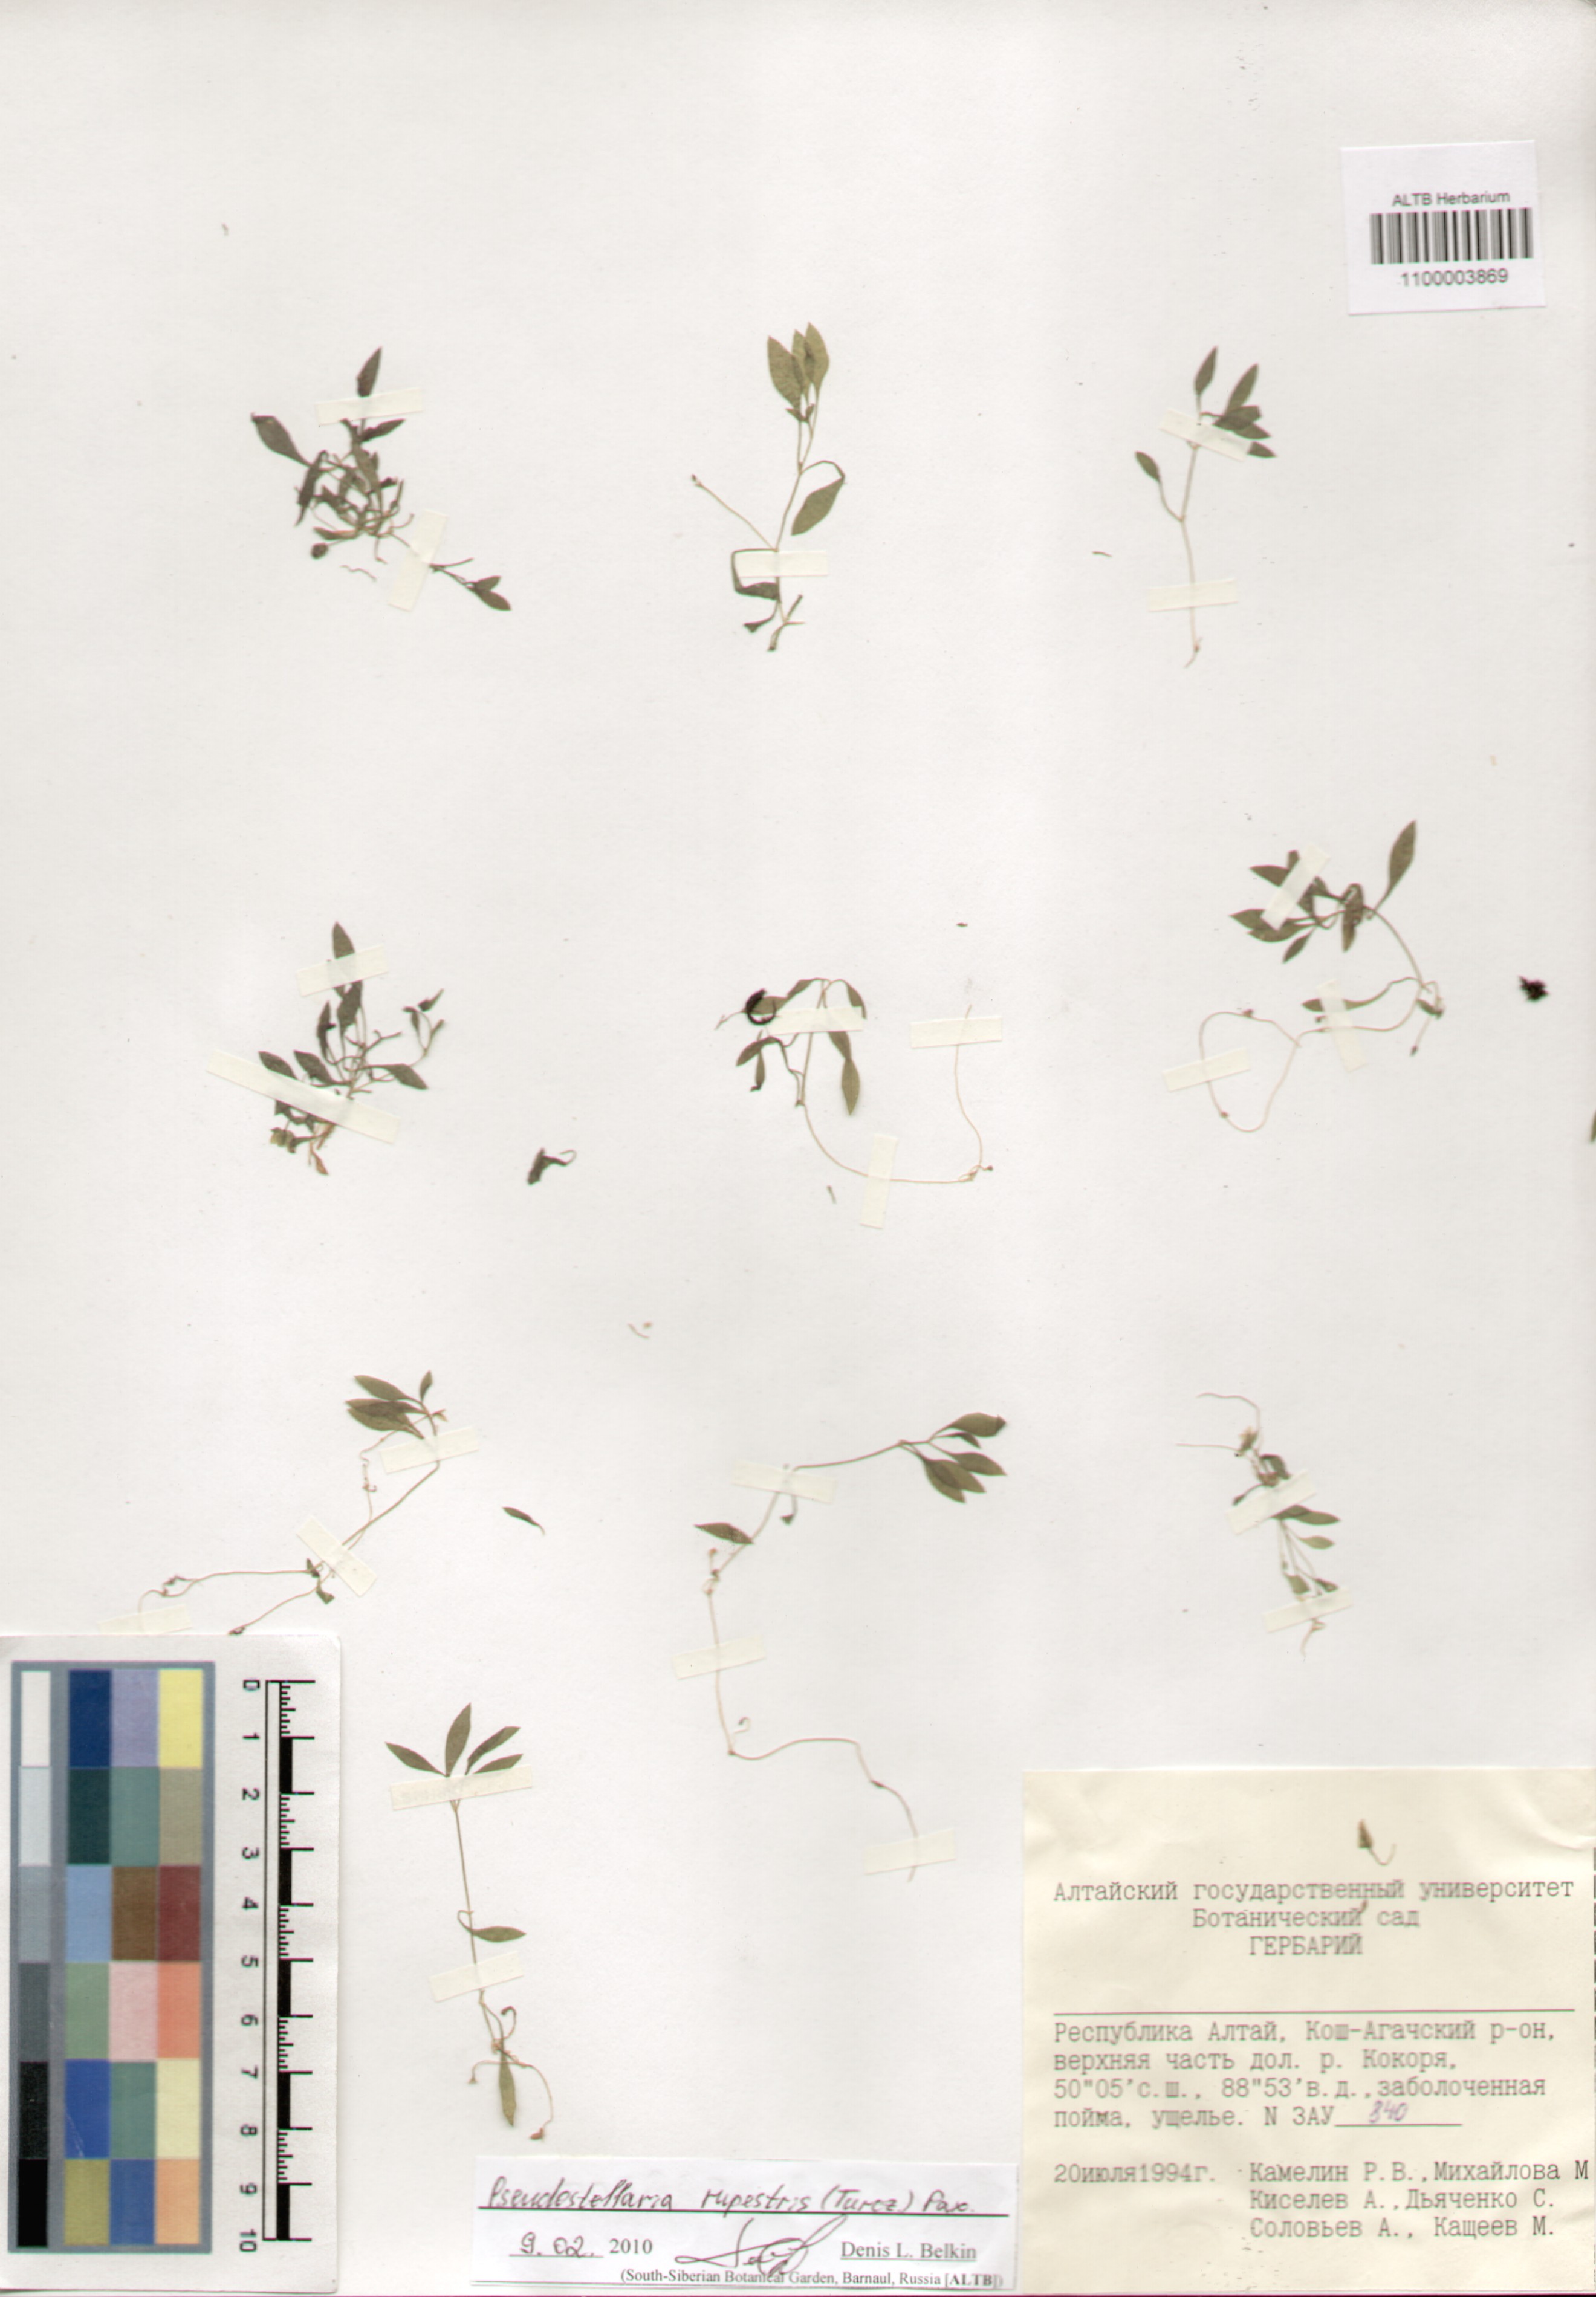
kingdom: Plantae
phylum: Tracheophyta
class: Magnoliopsida
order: Caryophyllales
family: Caryophyllaceae
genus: Pseudostellaria
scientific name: Pseudostellaria sylvatica
